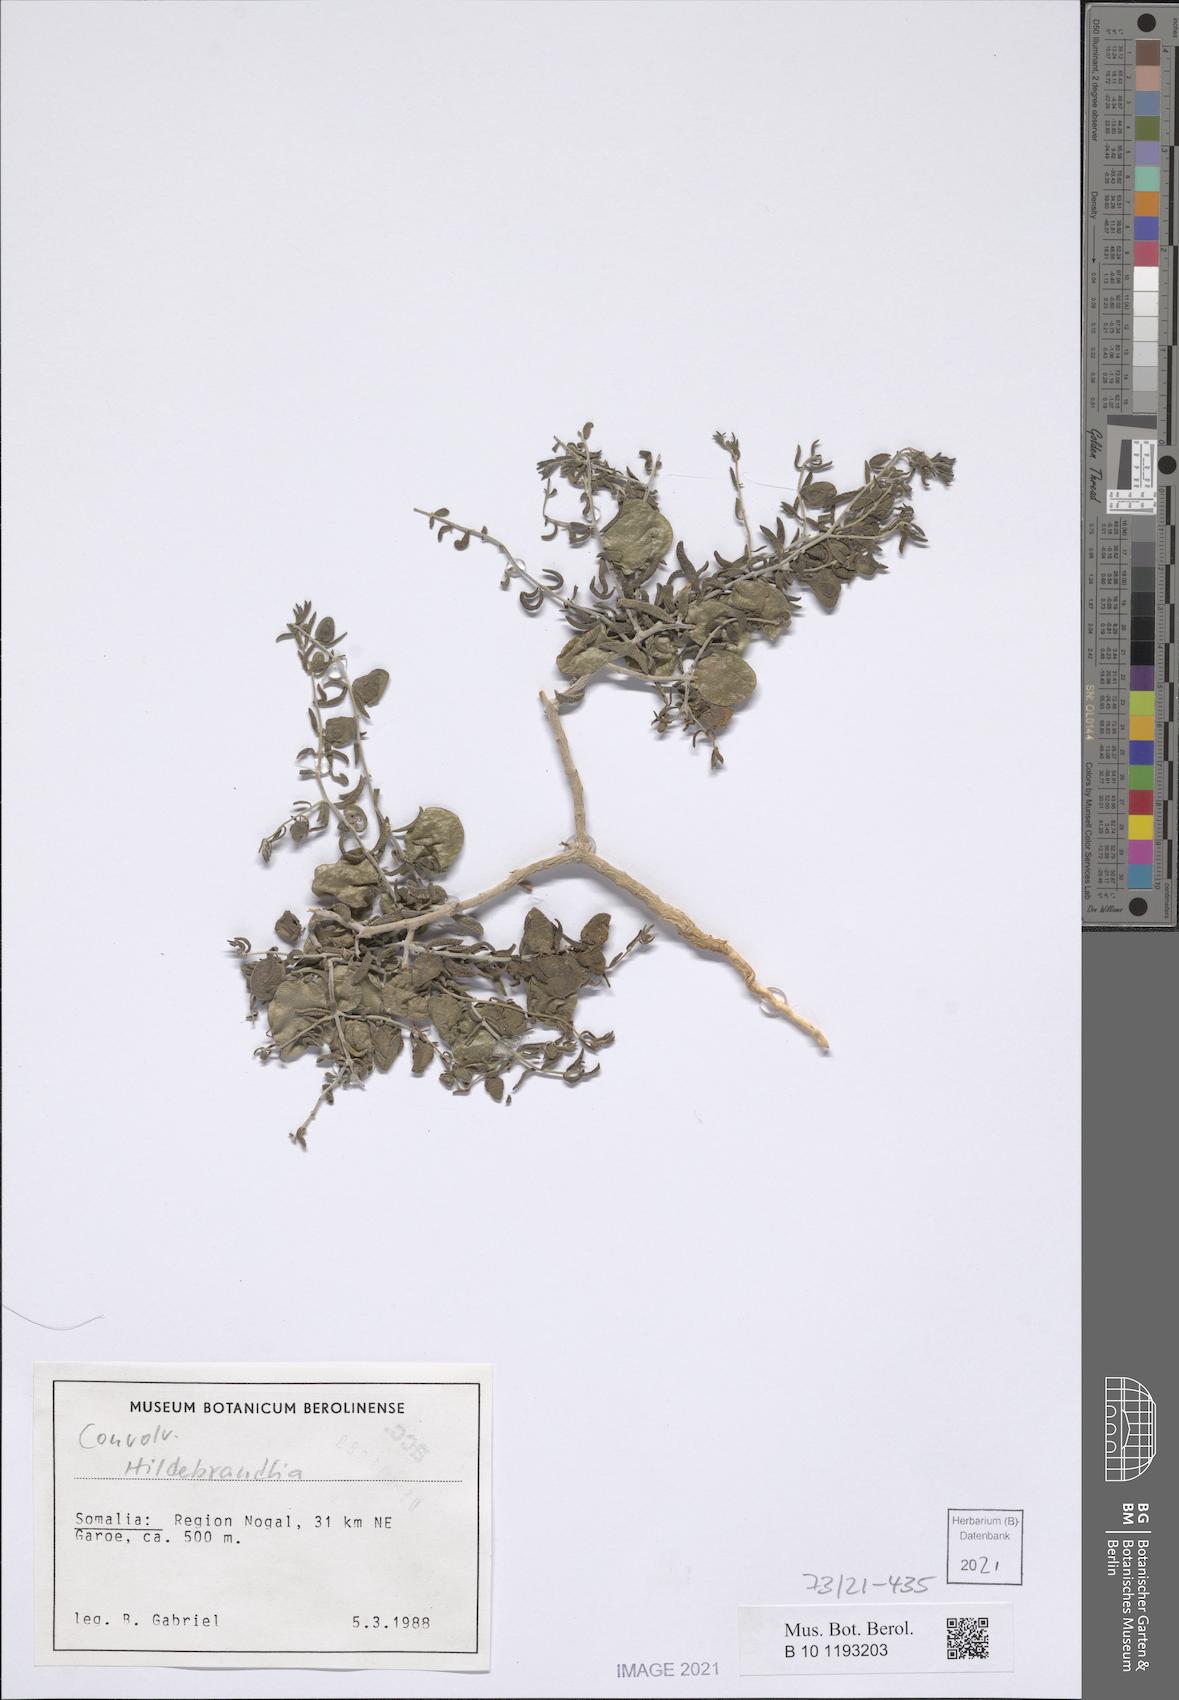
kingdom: Plantae
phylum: Tracheophyta
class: Magnoliopsida
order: Lamiales
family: Orobanchaceae
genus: Cyclocheilon
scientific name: Cyclocheilon physocalyx
